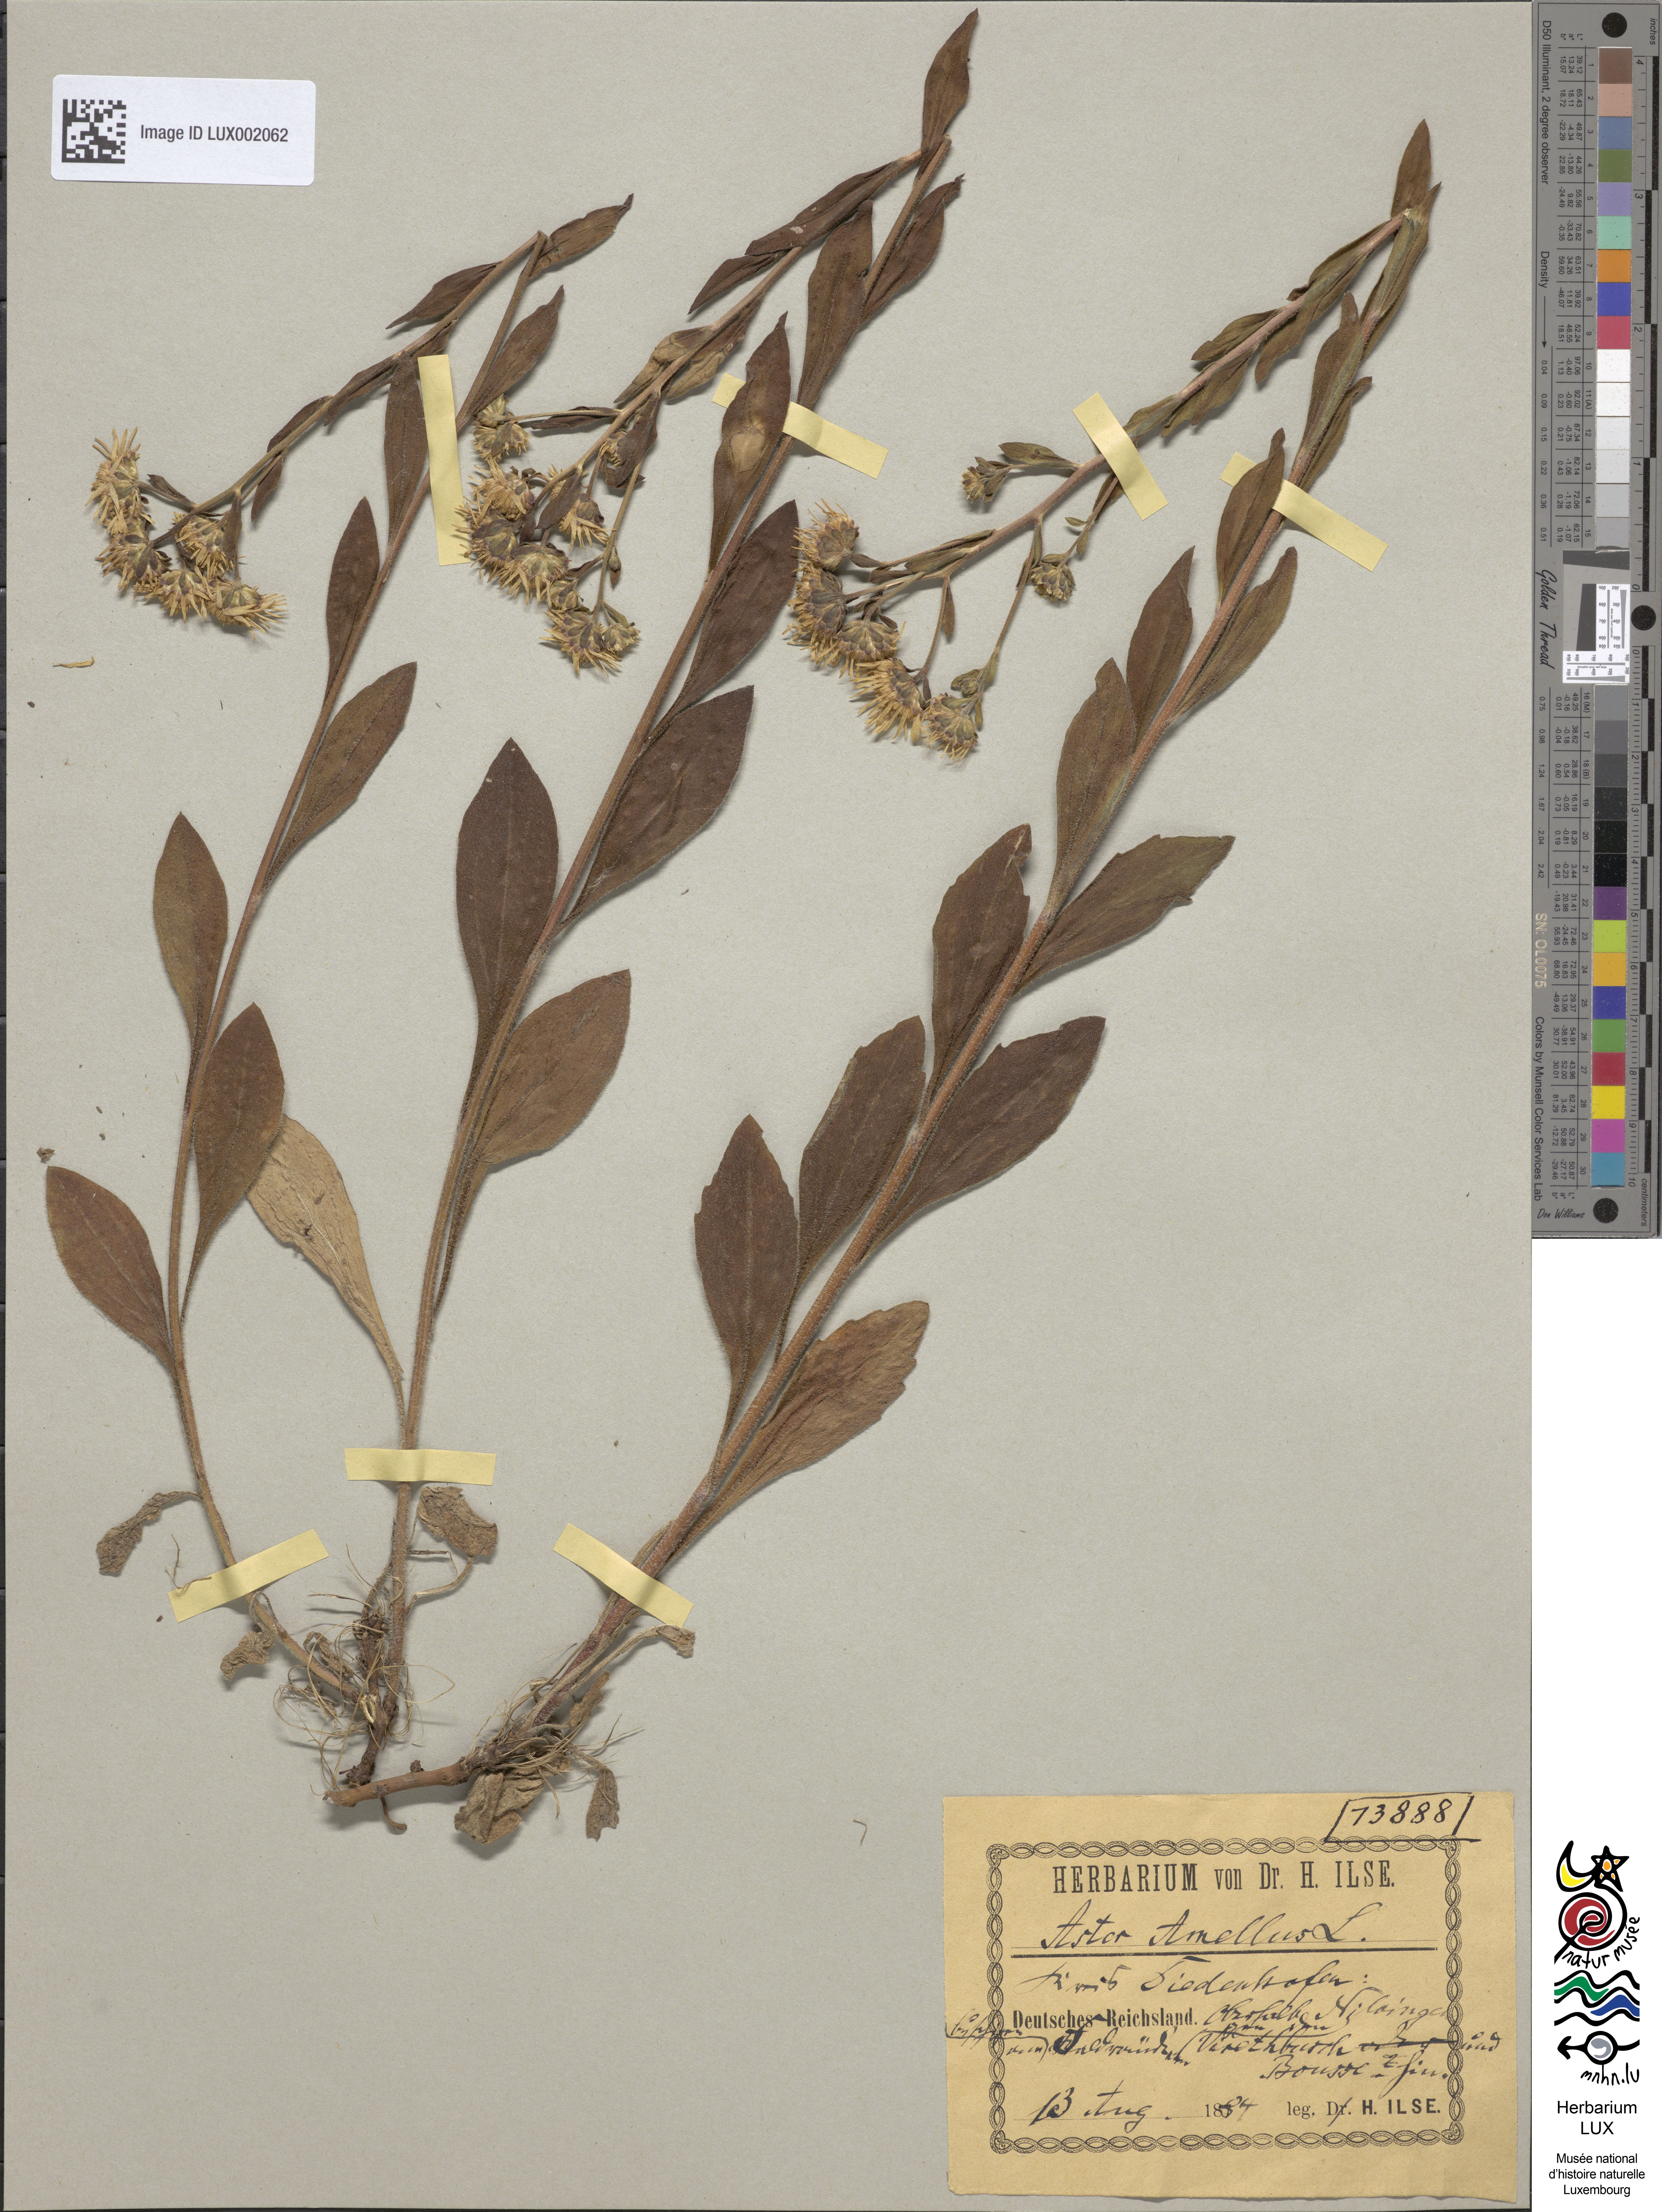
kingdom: Plantae
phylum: Tracheophyta
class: Magnoliopsida
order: Asterales
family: Asteraceae
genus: Aster
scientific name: Aster amellus
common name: European michaelmas daisy
